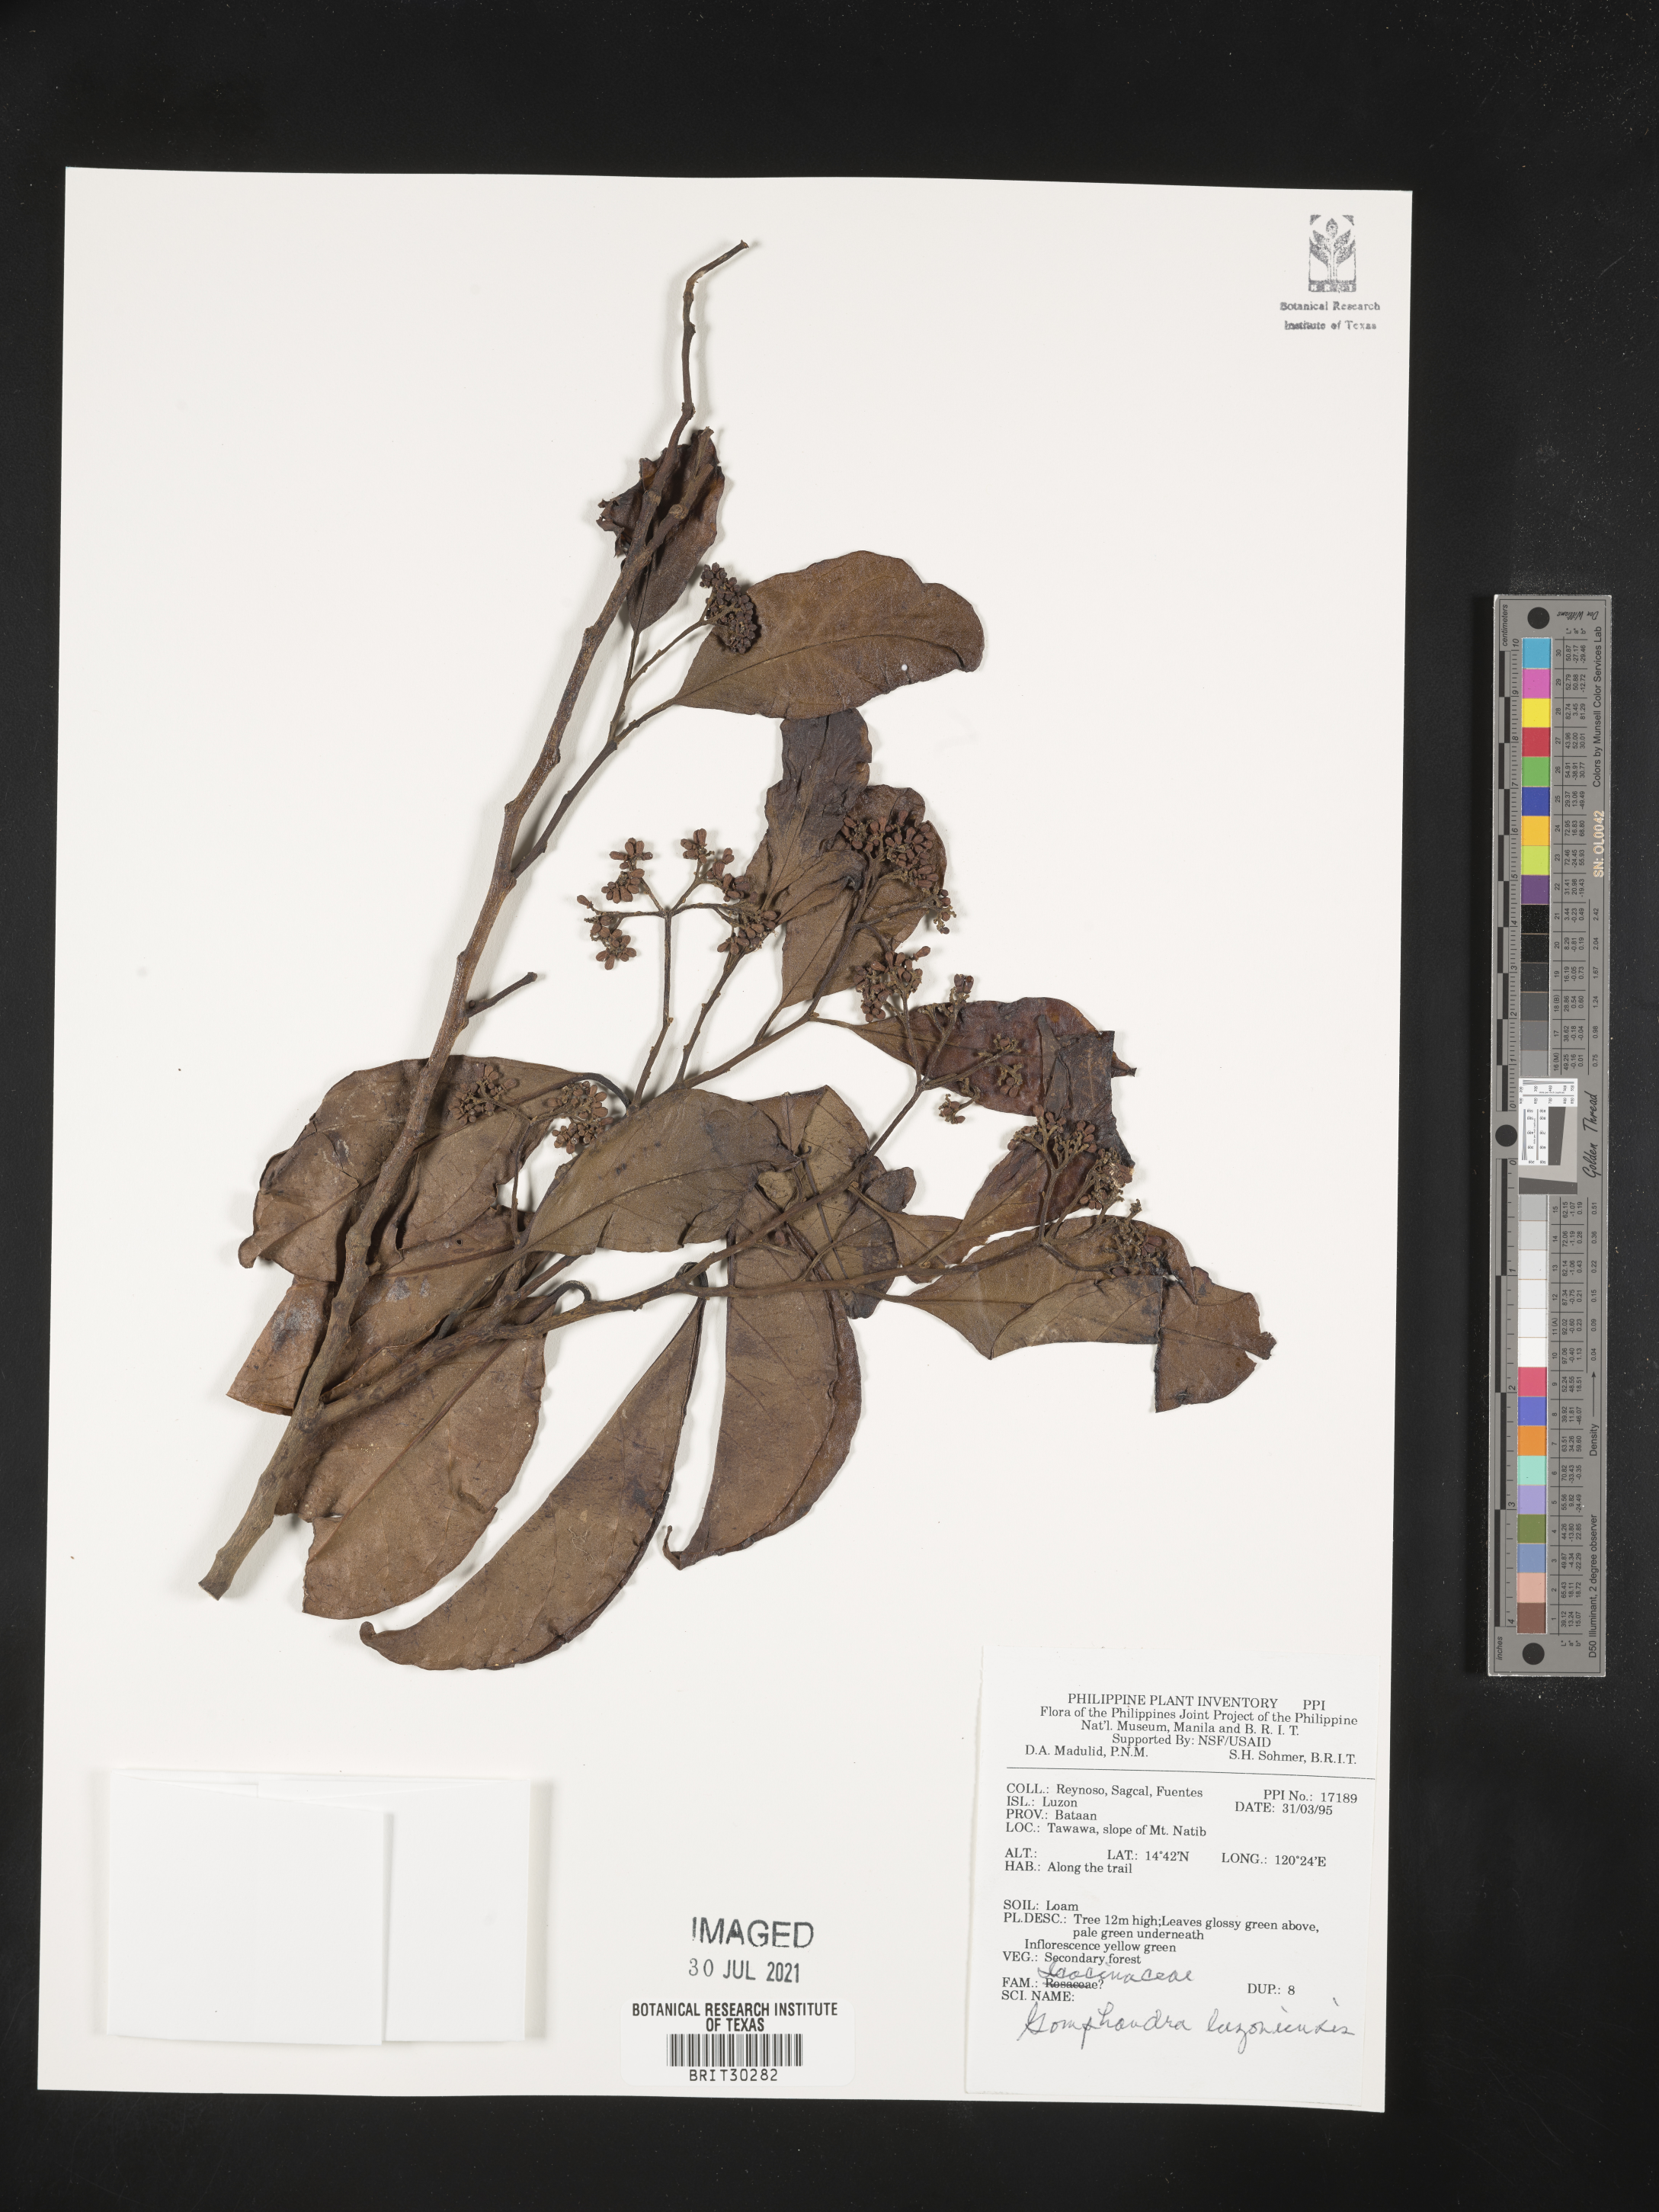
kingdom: Plantae
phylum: Tracheophyta
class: Magnoliopsida
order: Cardiopteridales
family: Stemonuraceae
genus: Gomphandra
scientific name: Gomphandra luzoniensis
